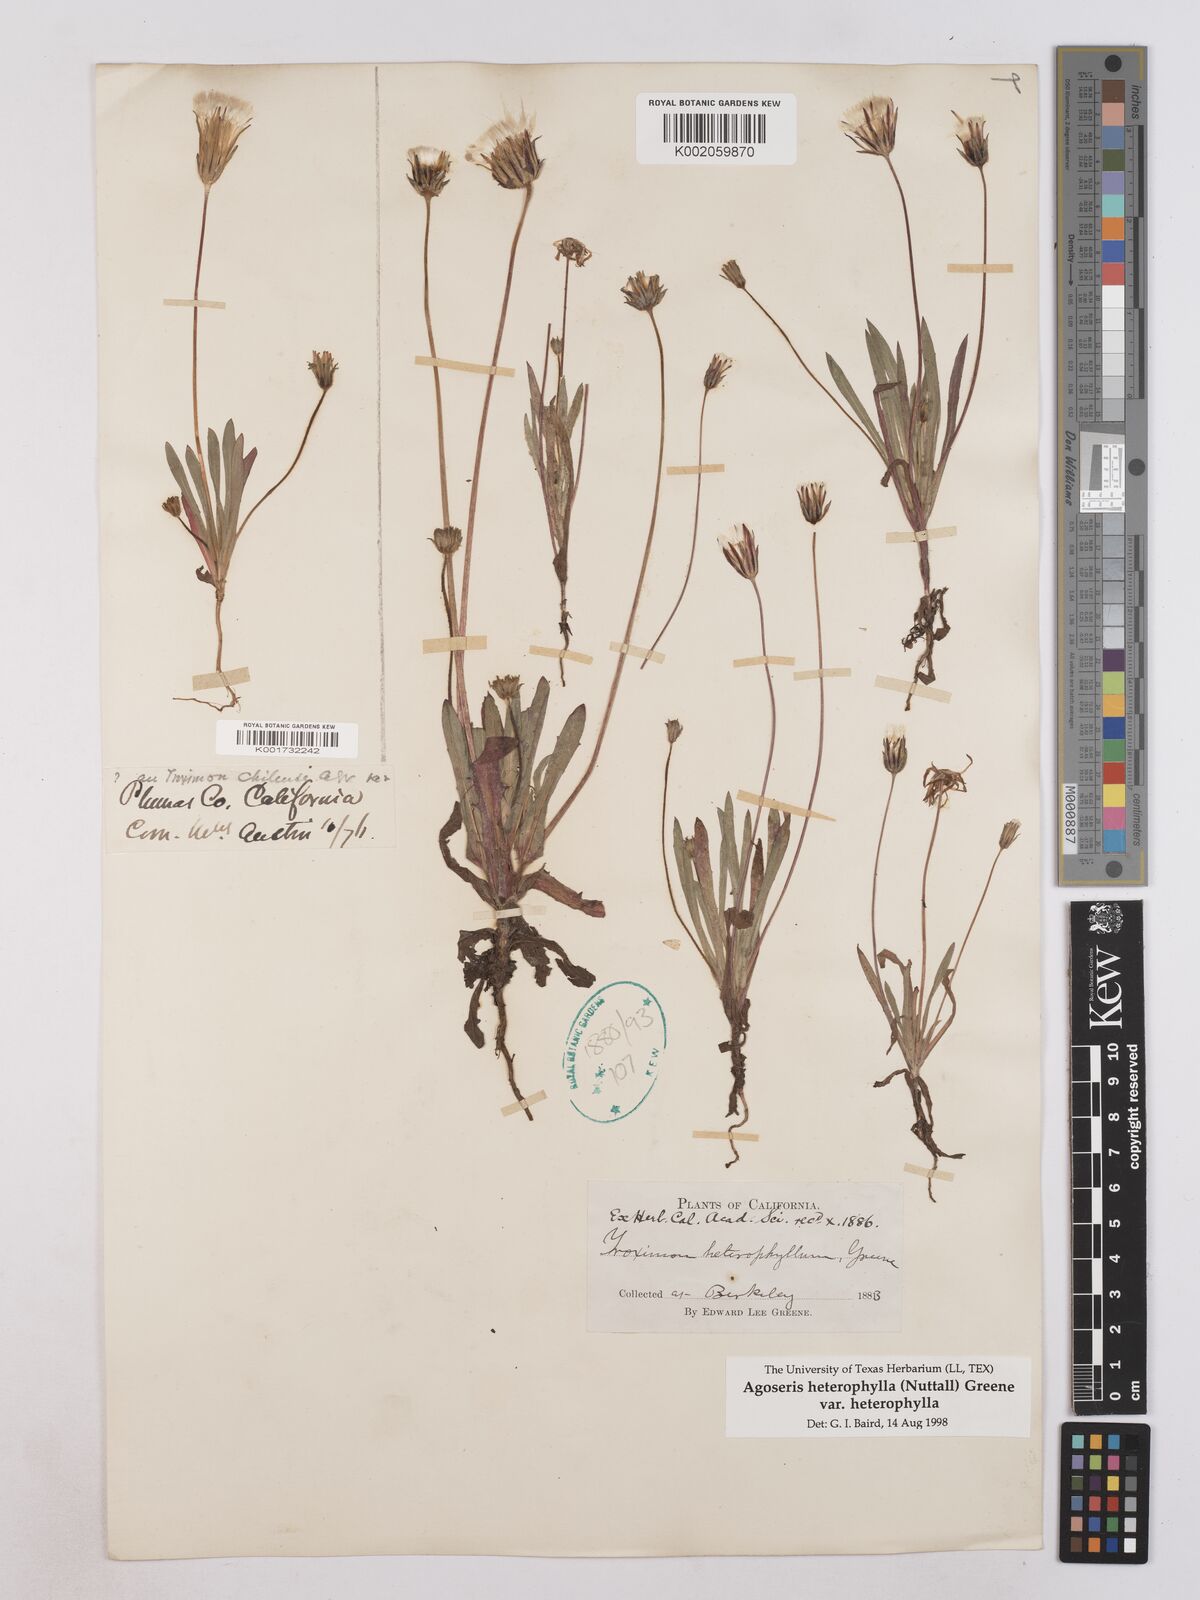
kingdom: Plantae
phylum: Tracheophyta
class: Magnoliopsida
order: Asterales
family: Asteraceae
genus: Agoseris
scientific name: Agoseris heterophylla
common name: Annual agoseris
